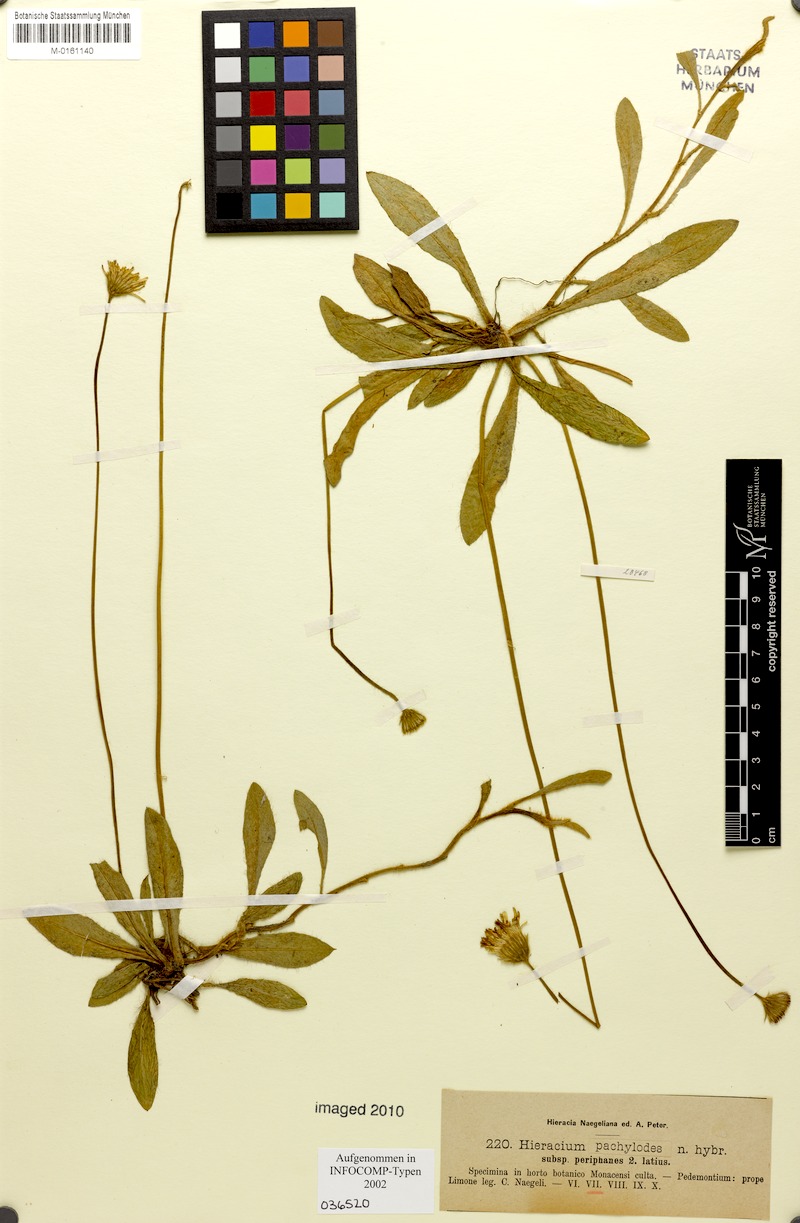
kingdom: Plantae
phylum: Tracheophyta
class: Magnoliopsida
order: Asterales
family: Asteraceae
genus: Pilosella
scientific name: Pilosella longisquama
